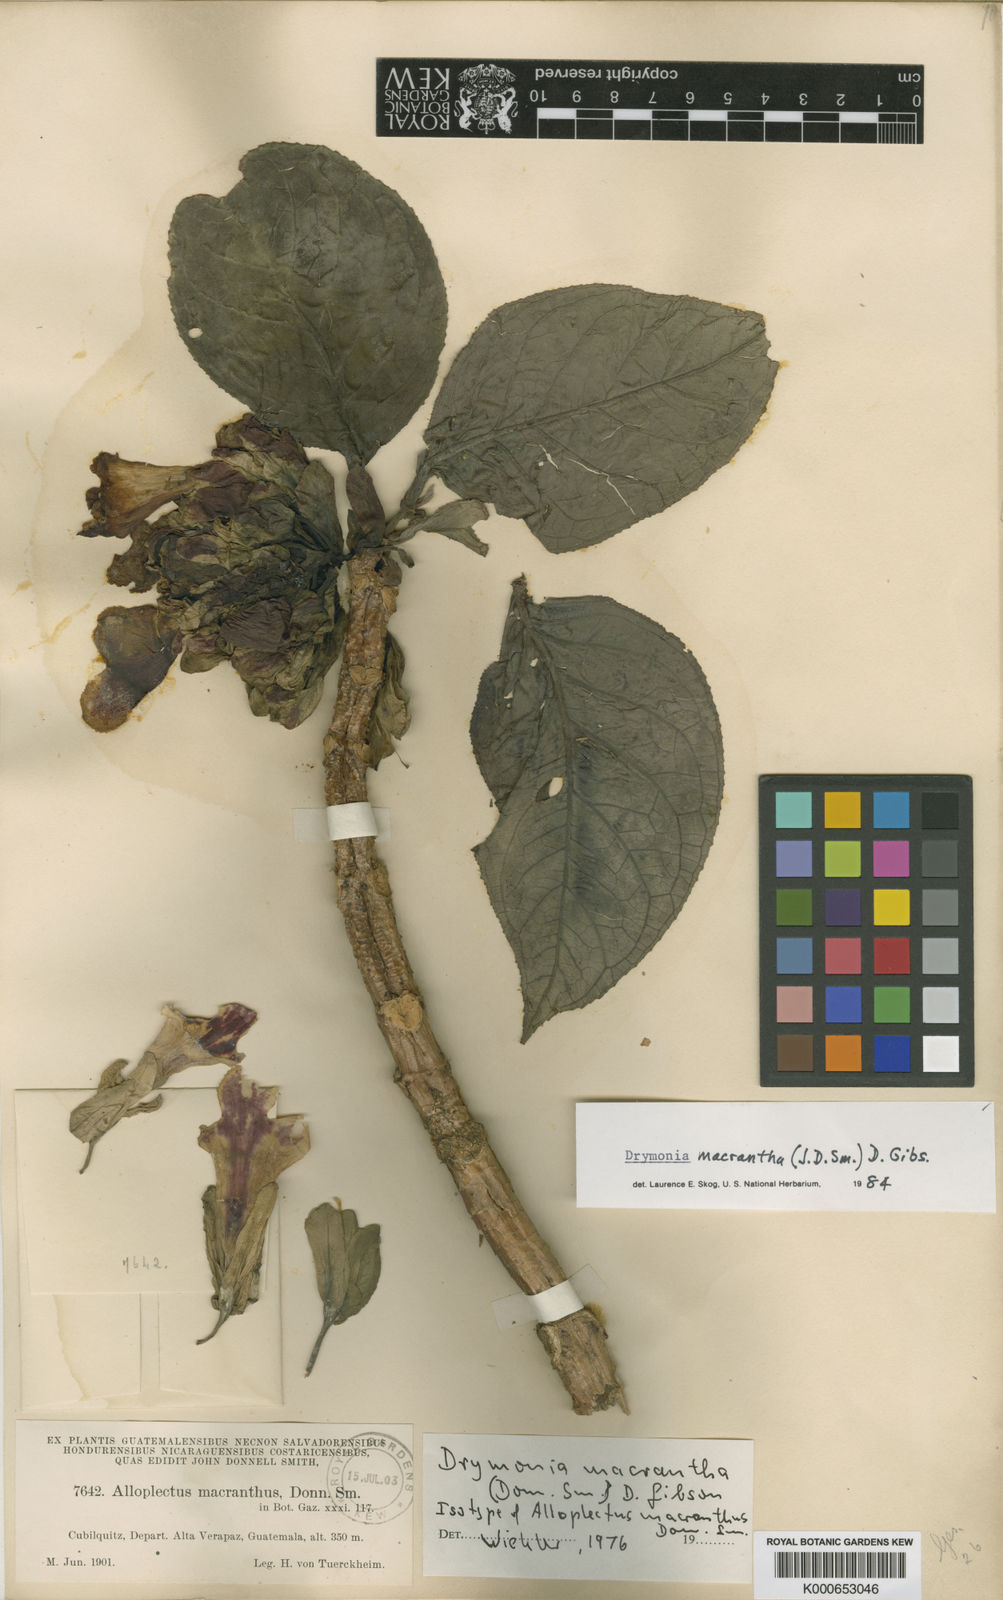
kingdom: Plantae
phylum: Tracheophyta
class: Magnoliopsida
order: Lamiales
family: Gesneriaceae
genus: Drymonia
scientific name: Drymonia macrantha
